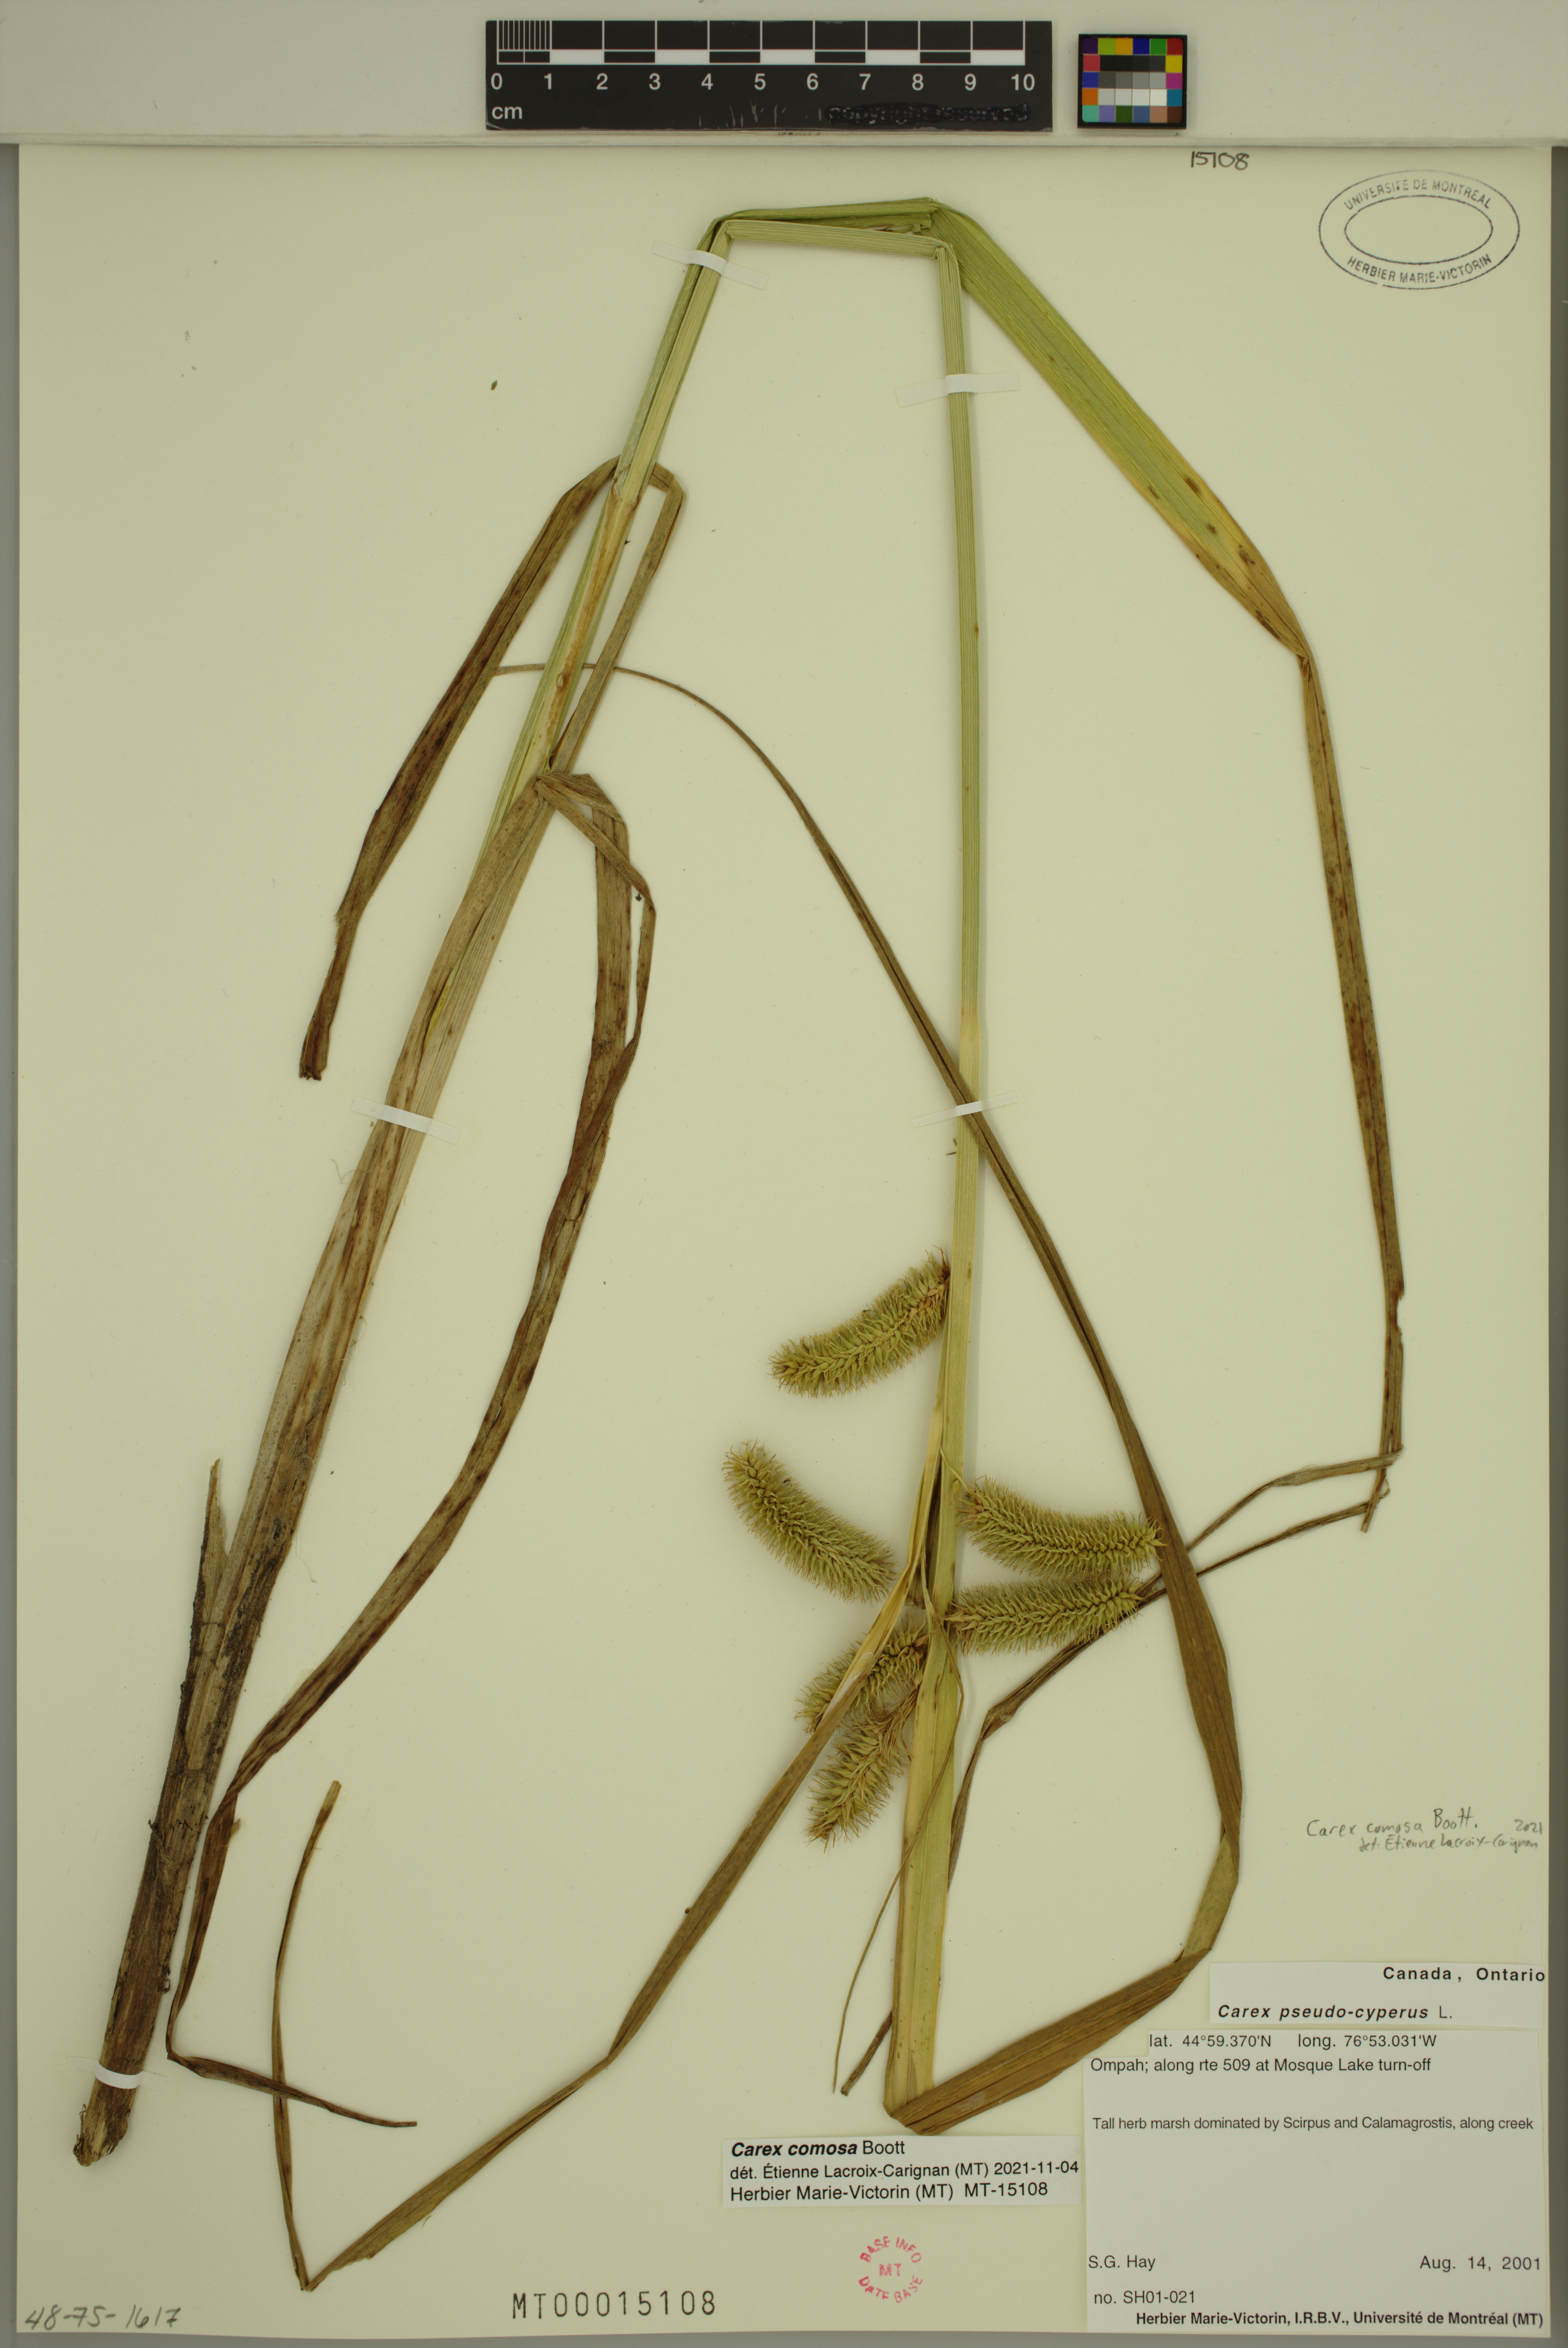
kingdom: Plantae
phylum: Tracheophyta
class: Liliopsida
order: Poales
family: Cyperaceae
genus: Carex
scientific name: Carex comosa
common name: Bristly sedge
